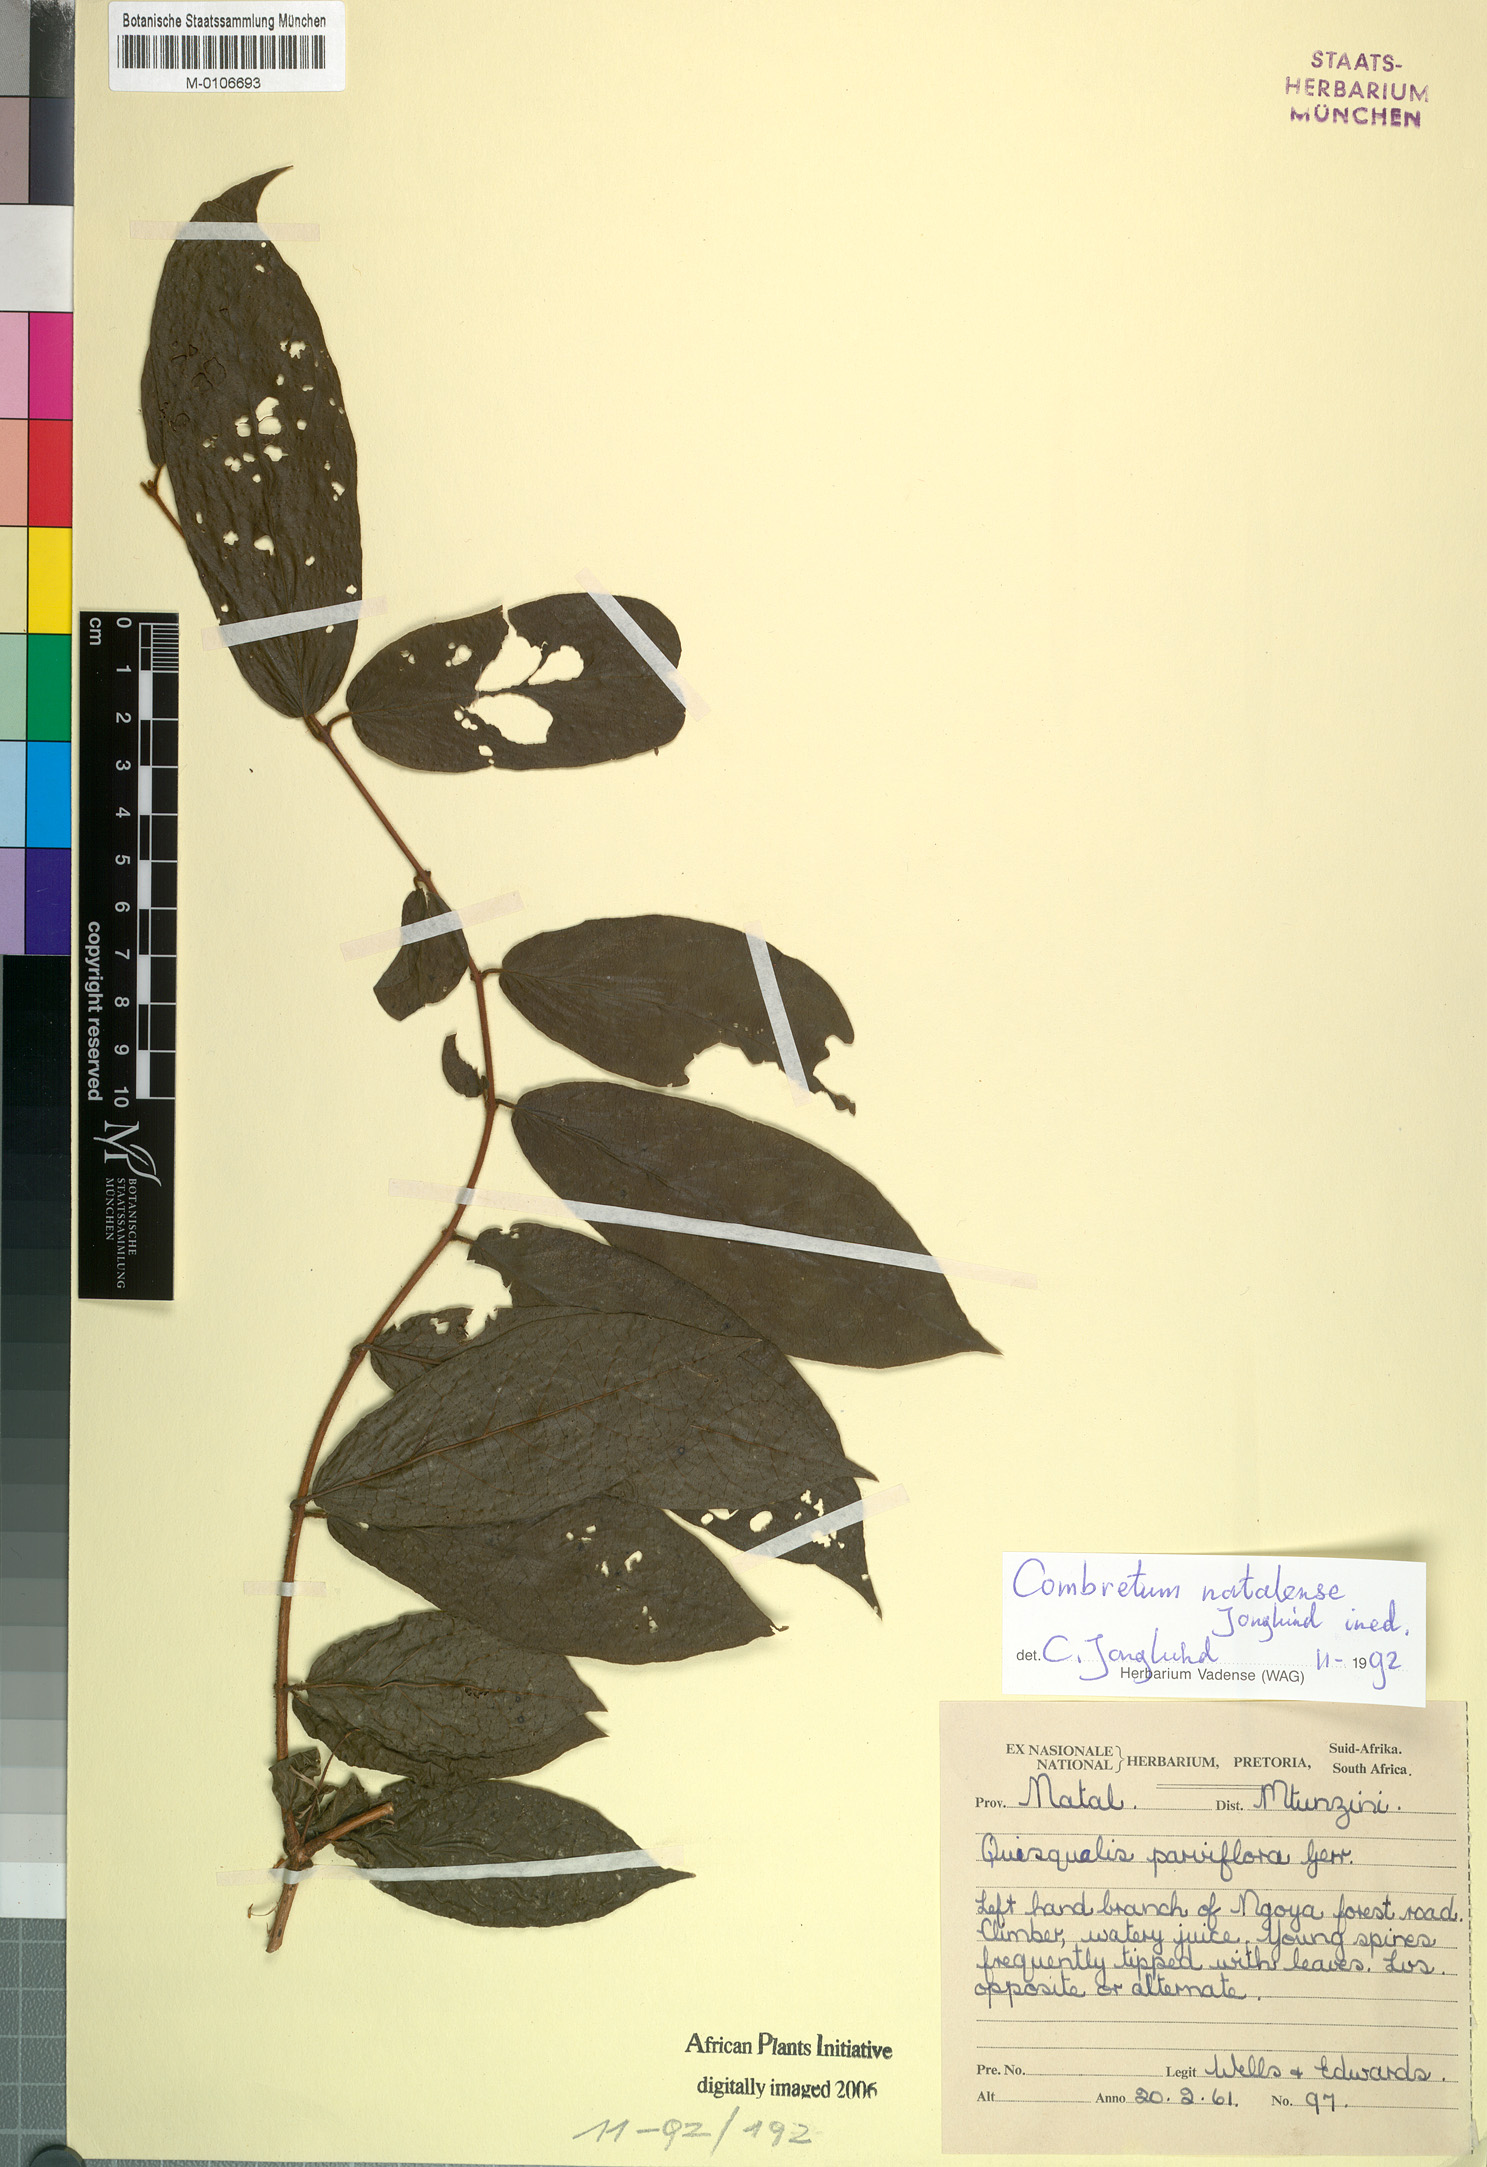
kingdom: Plantae
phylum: Tracheophyta
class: Magnoliopsida
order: Myrtales
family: Combretaceae
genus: Combretum
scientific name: Combretum
